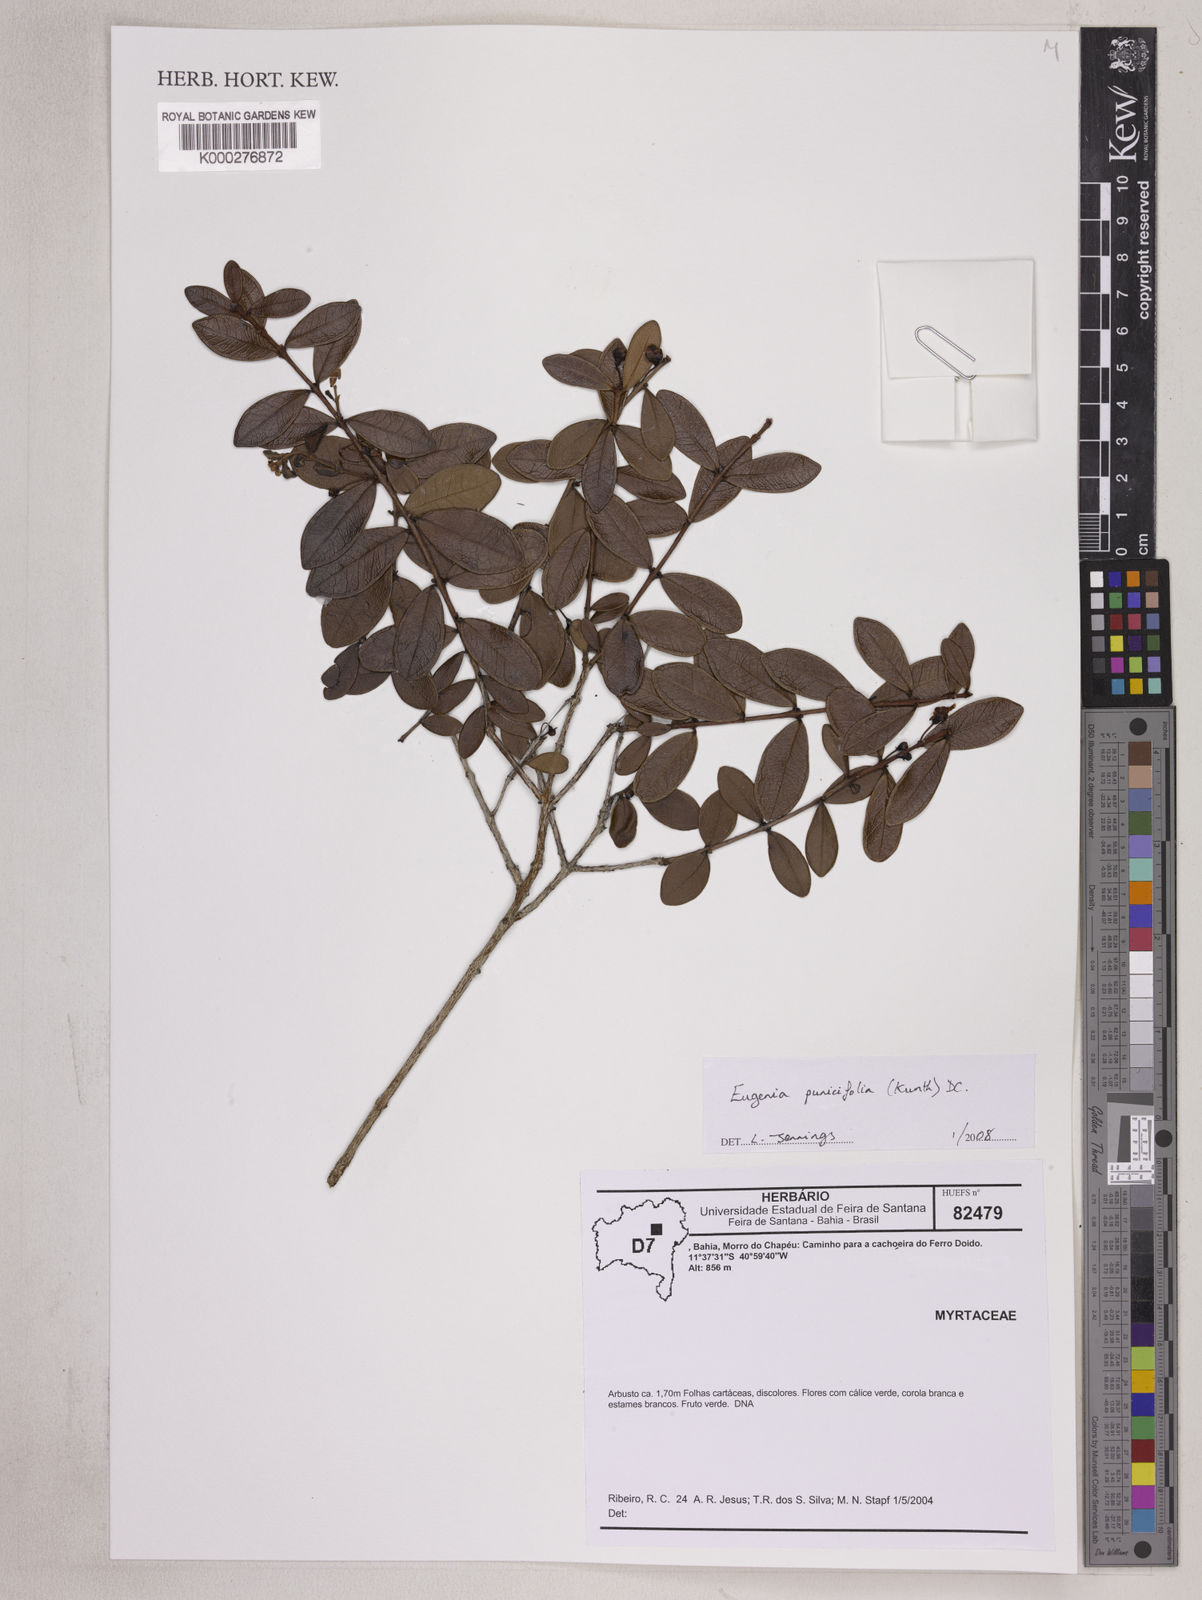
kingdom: Plantae
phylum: Tracheophyta
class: Magnoliopsida
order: Myrtales
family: Myrtaceae
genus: Eugenia
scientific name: Eugenia punicifolia
